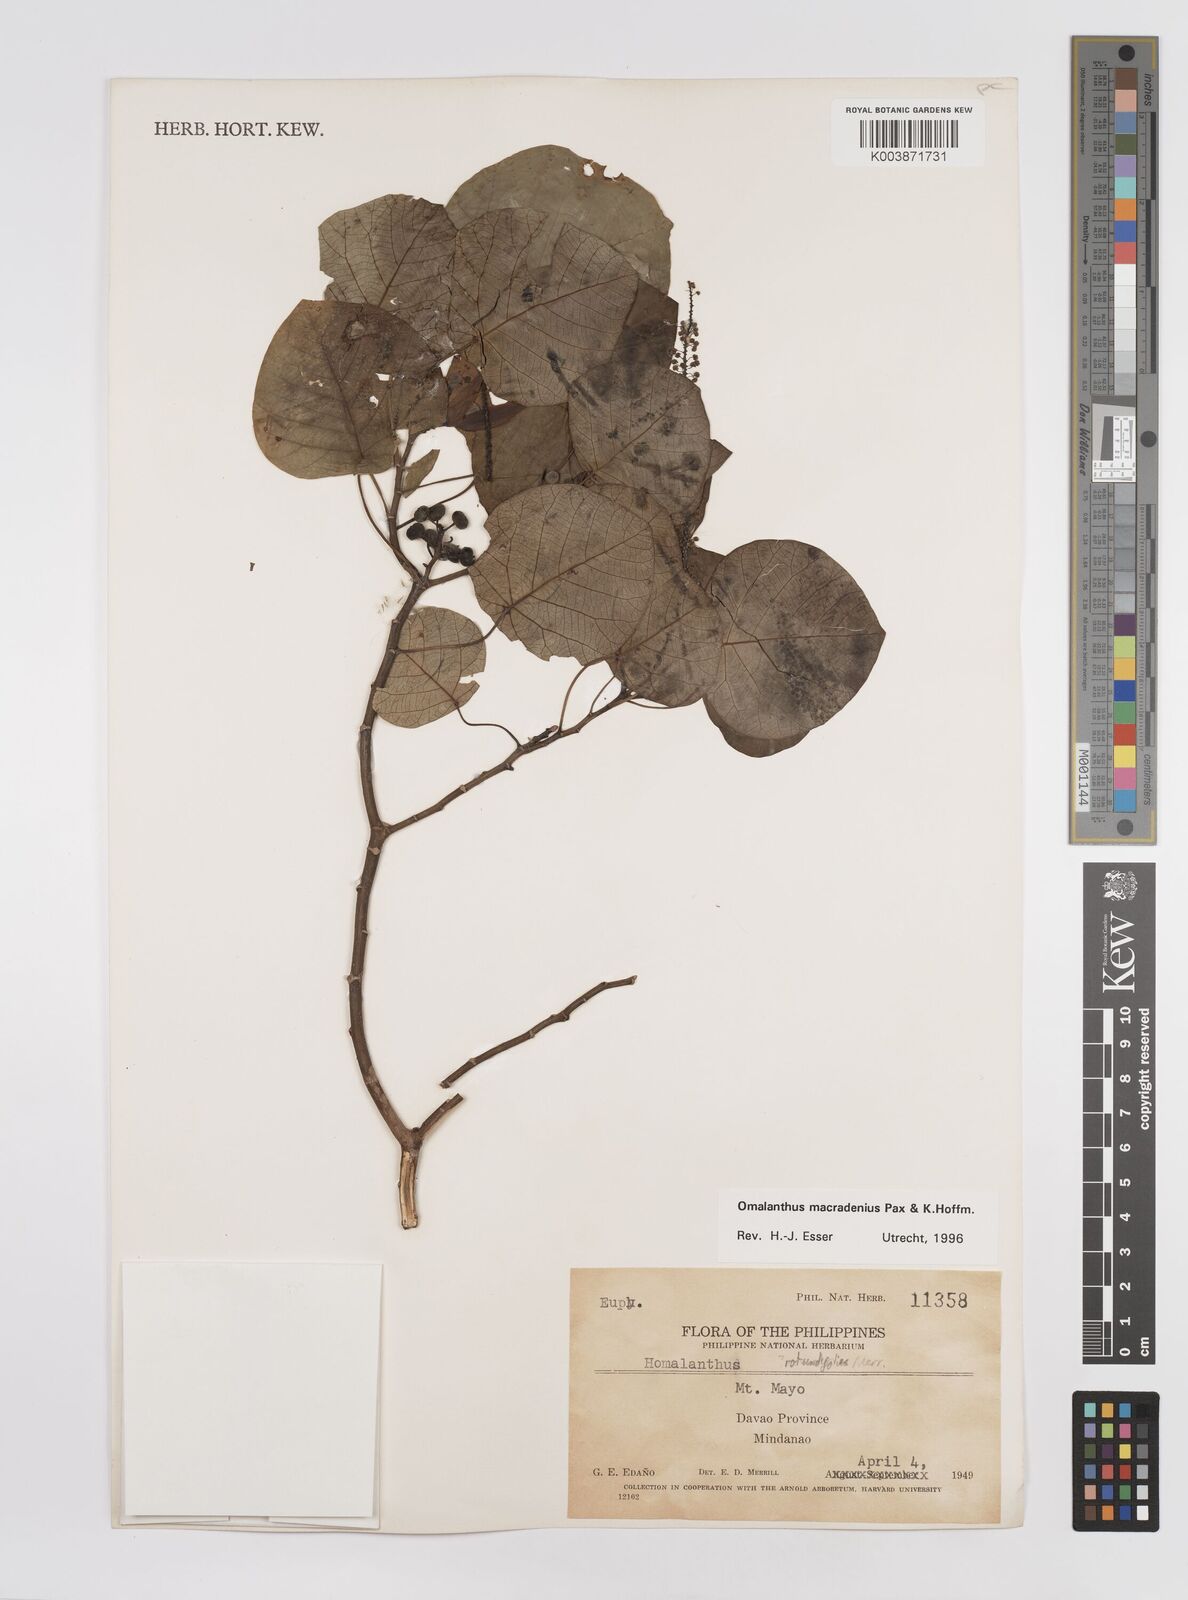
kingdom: Plantae
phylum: Tracheophyta
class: Magnoliopsida
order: Malpighiales
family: Euphorbiaceae
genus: Homalanthus
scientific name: Homalanthus macradenius
